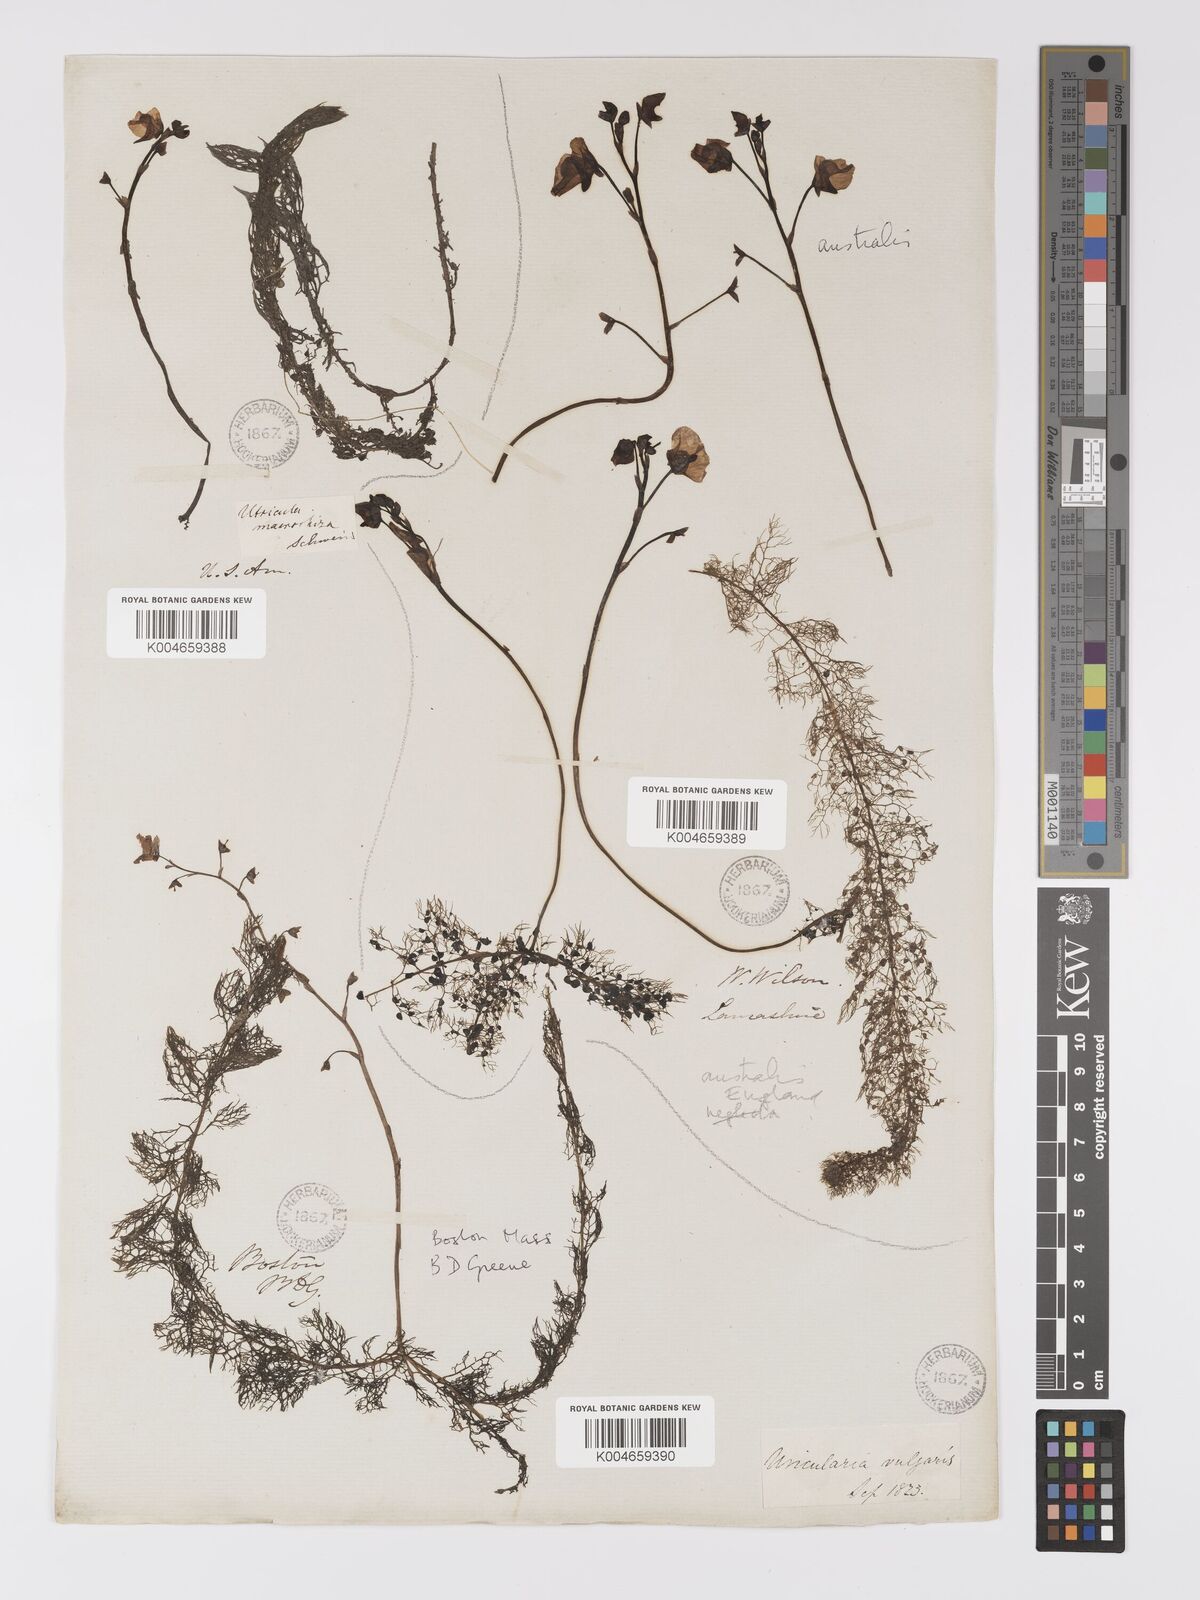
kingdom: Plantae
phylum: Tracheophyta
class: Magnoliopsida
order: Lamiales
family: Lentibulariaceae
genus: Utricularia
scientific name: Utricularia macrorhiza
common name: Common bladderwort
